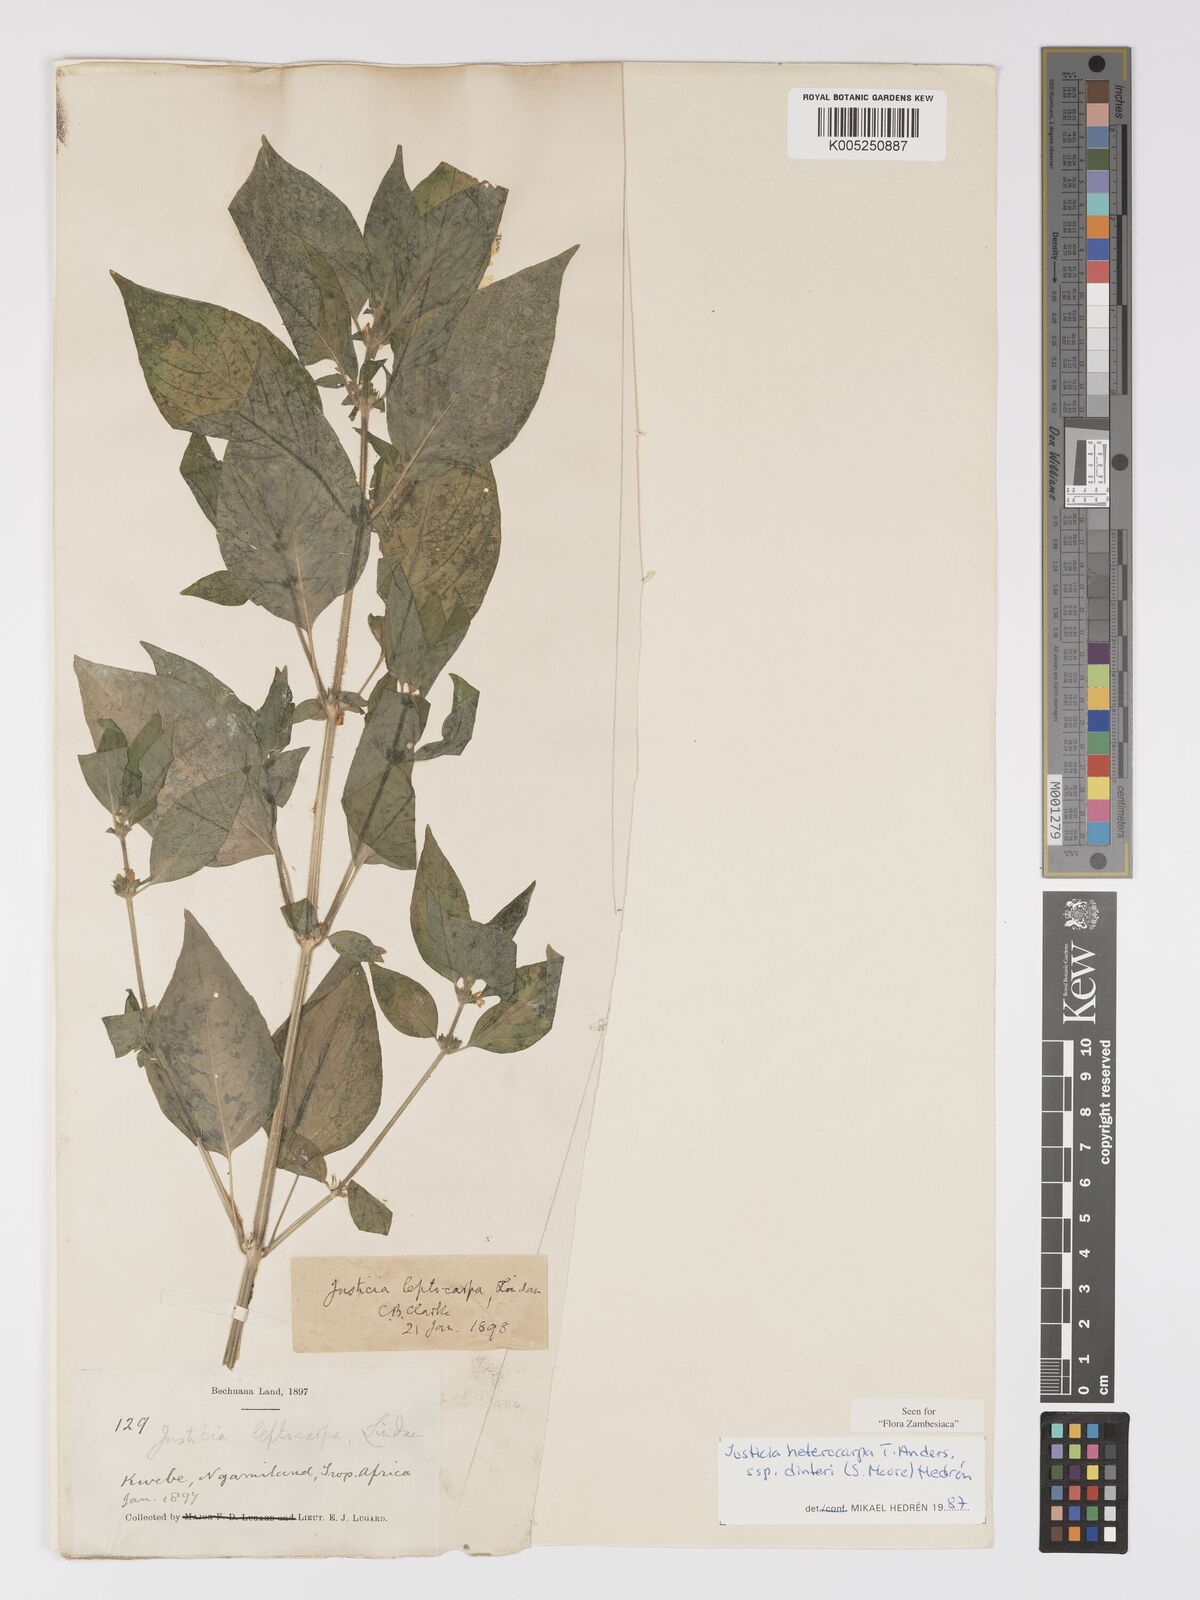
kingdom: Plantae
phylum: Tracheophyta
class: Magnoliopsida
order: Lamiales
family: Acanthaceae
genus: Justicia
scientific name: Justicia heterocarpa
